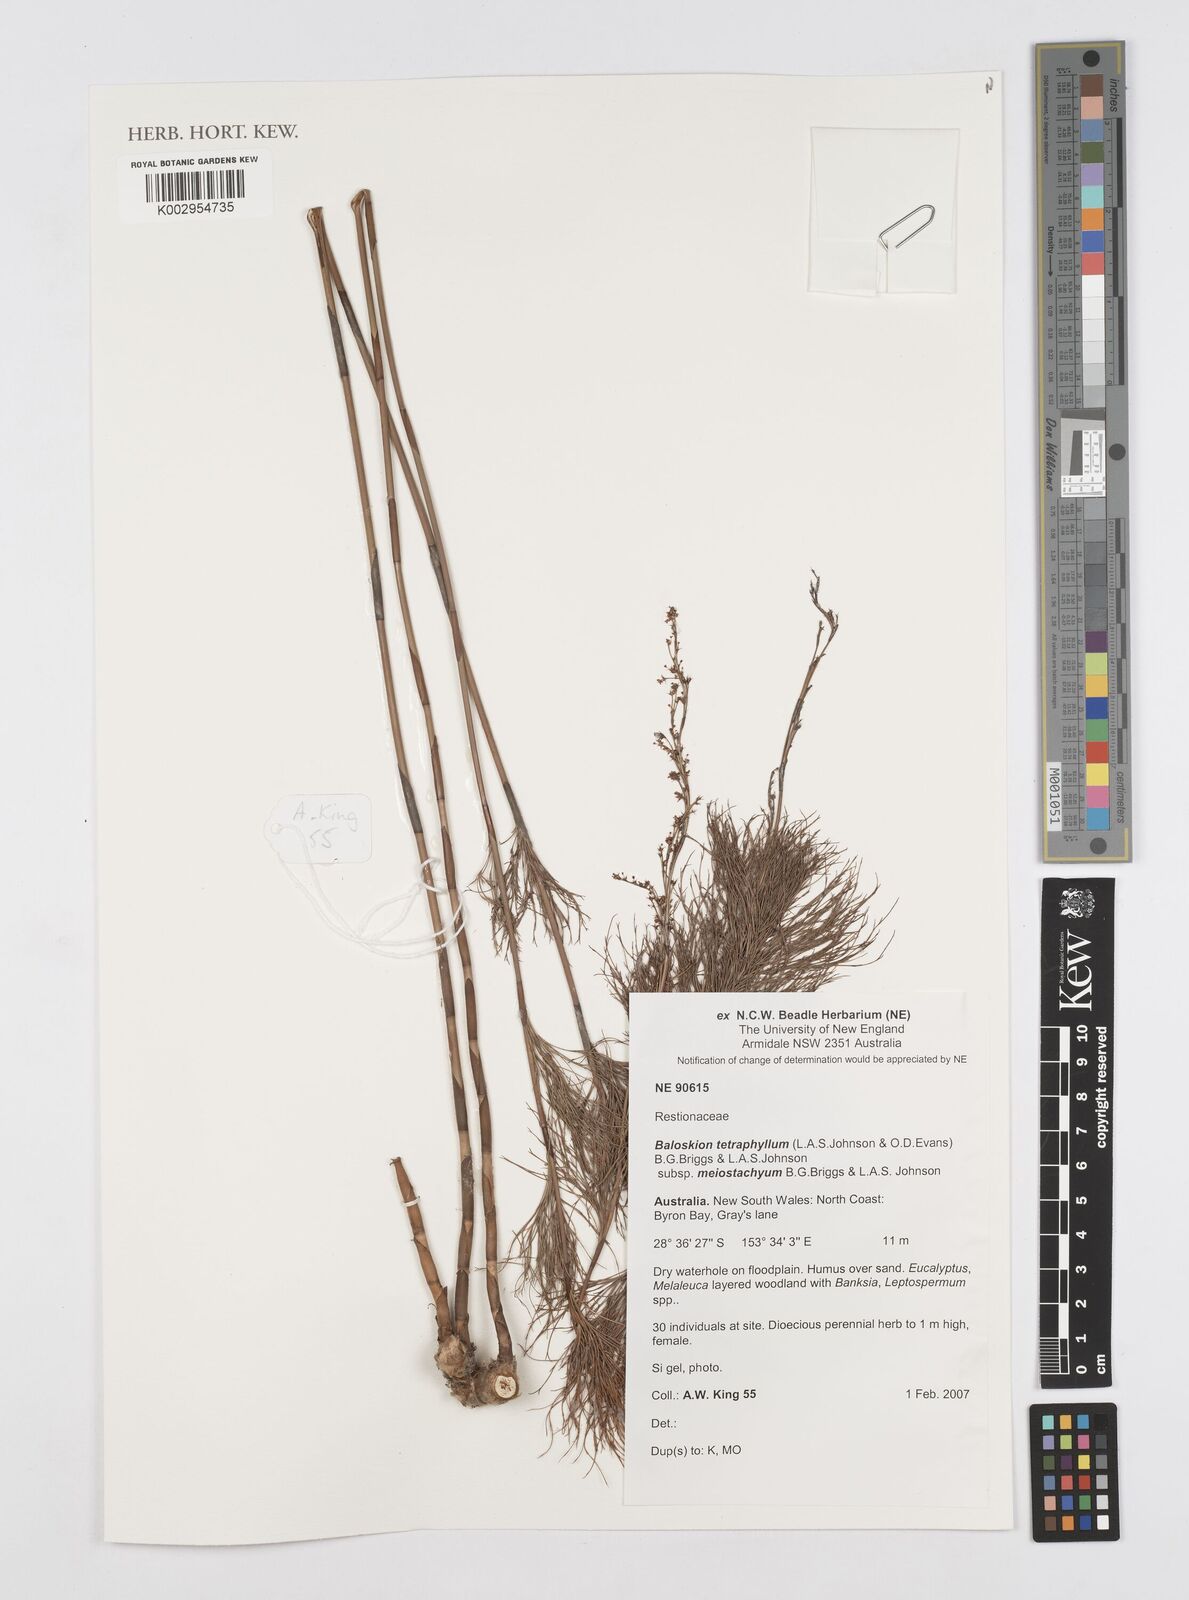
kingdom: Plantae
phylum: Tracheophyta
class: Liliopsida
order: Poales
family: Restionaceae
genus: Baloskion
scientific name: Baloskion tetraphyllum
